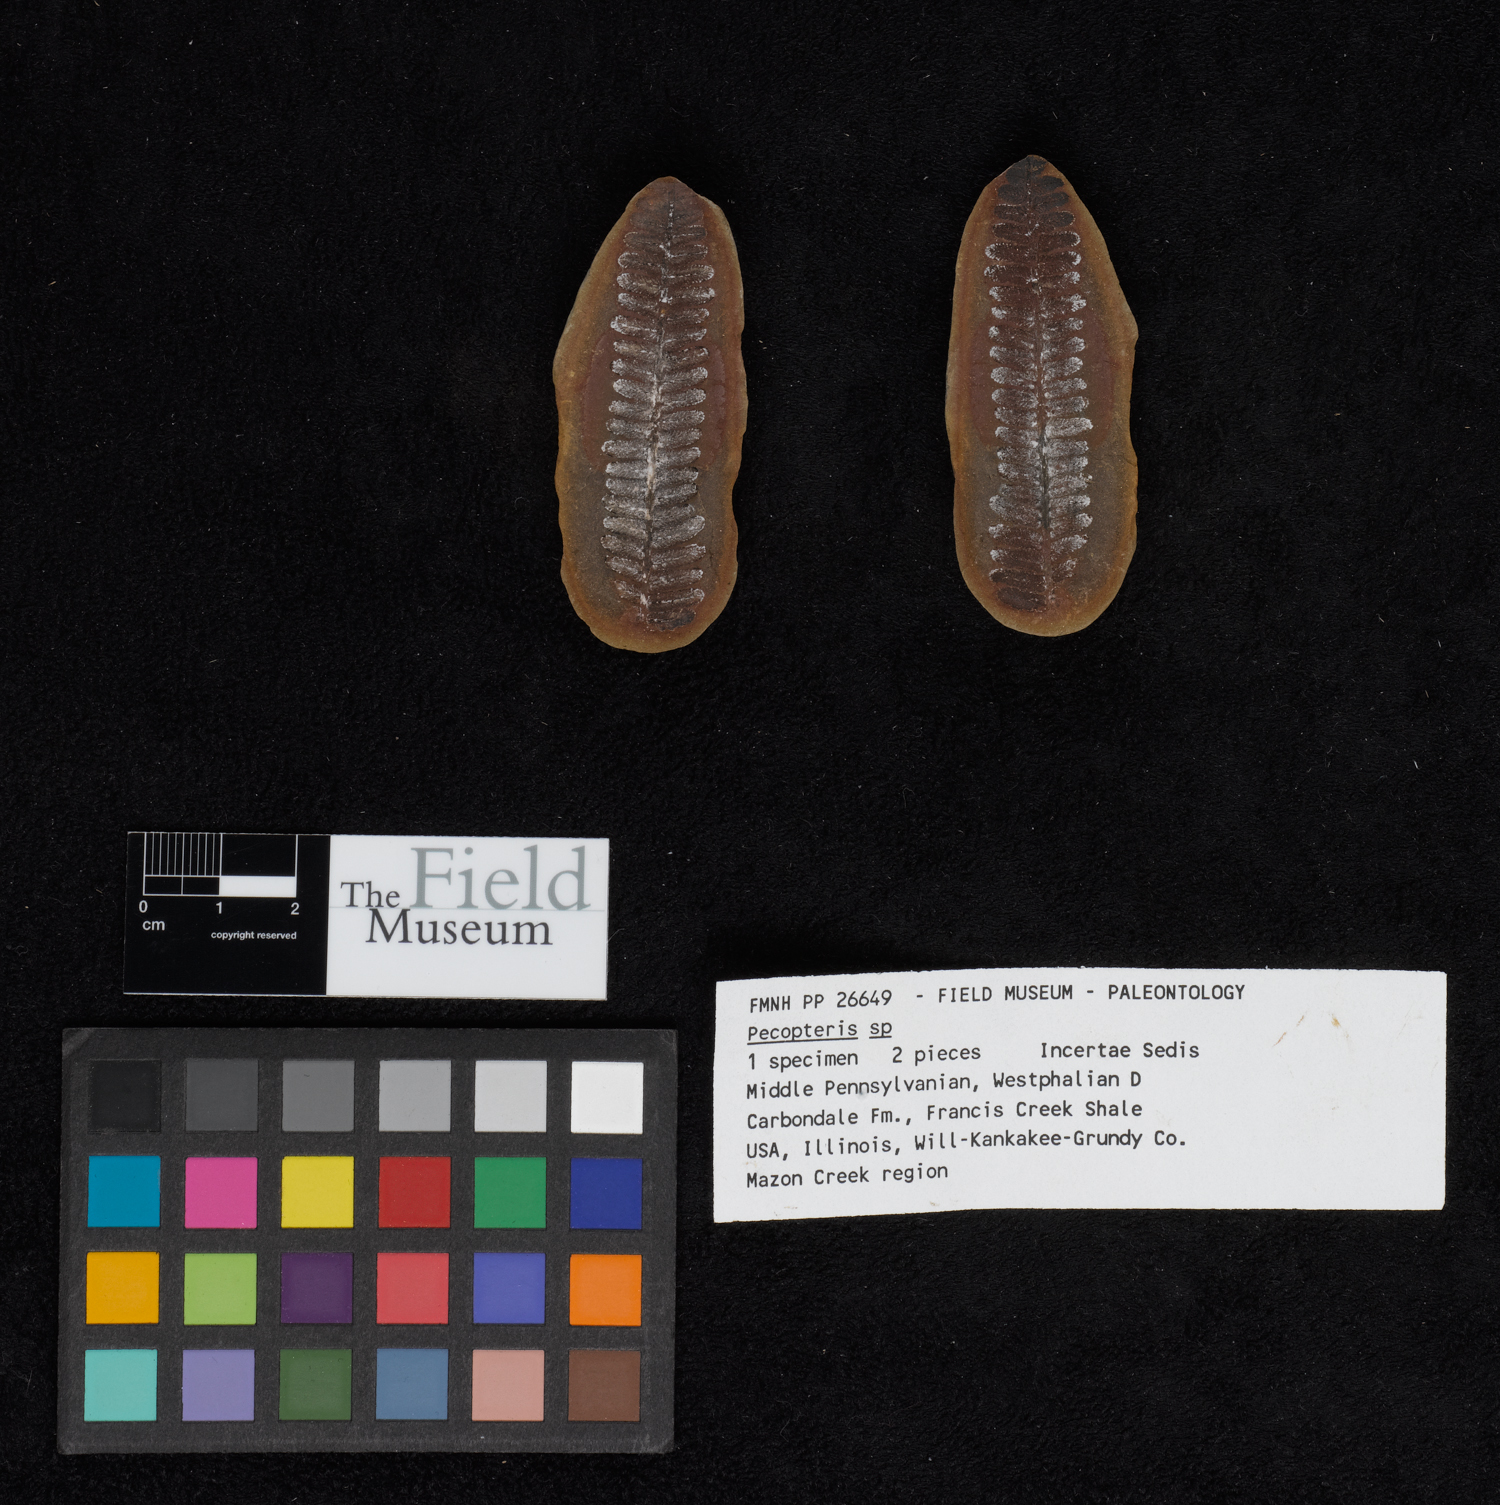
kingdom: Plantae
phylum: Tracheophyta
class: Polypodiopsida
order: Marattiales
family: Asterothecaceae
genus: Pecopteris
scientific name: Pecopteris
